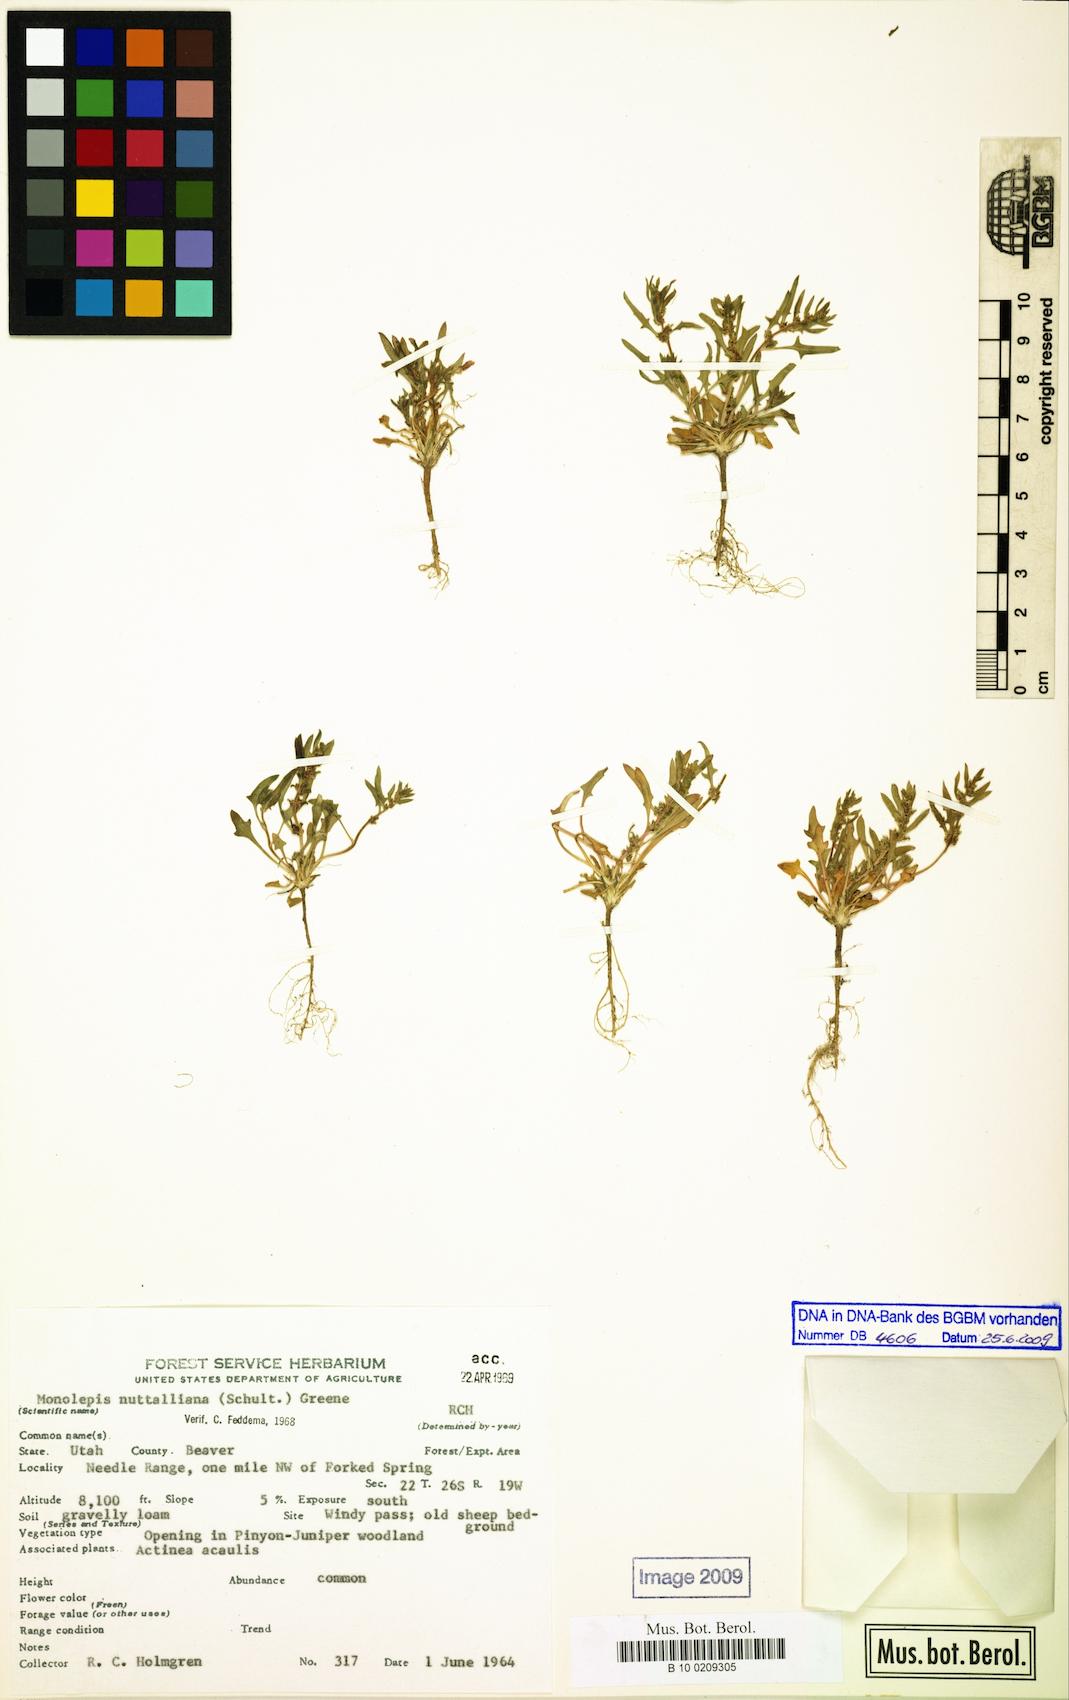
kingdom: Plantae
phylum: Tracheophyta
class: Magnoliopsida
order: Caryophyllales
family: Amaranthaceae
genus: Blitum
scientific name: Blitum nuttallianum
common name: Poverty-weed
